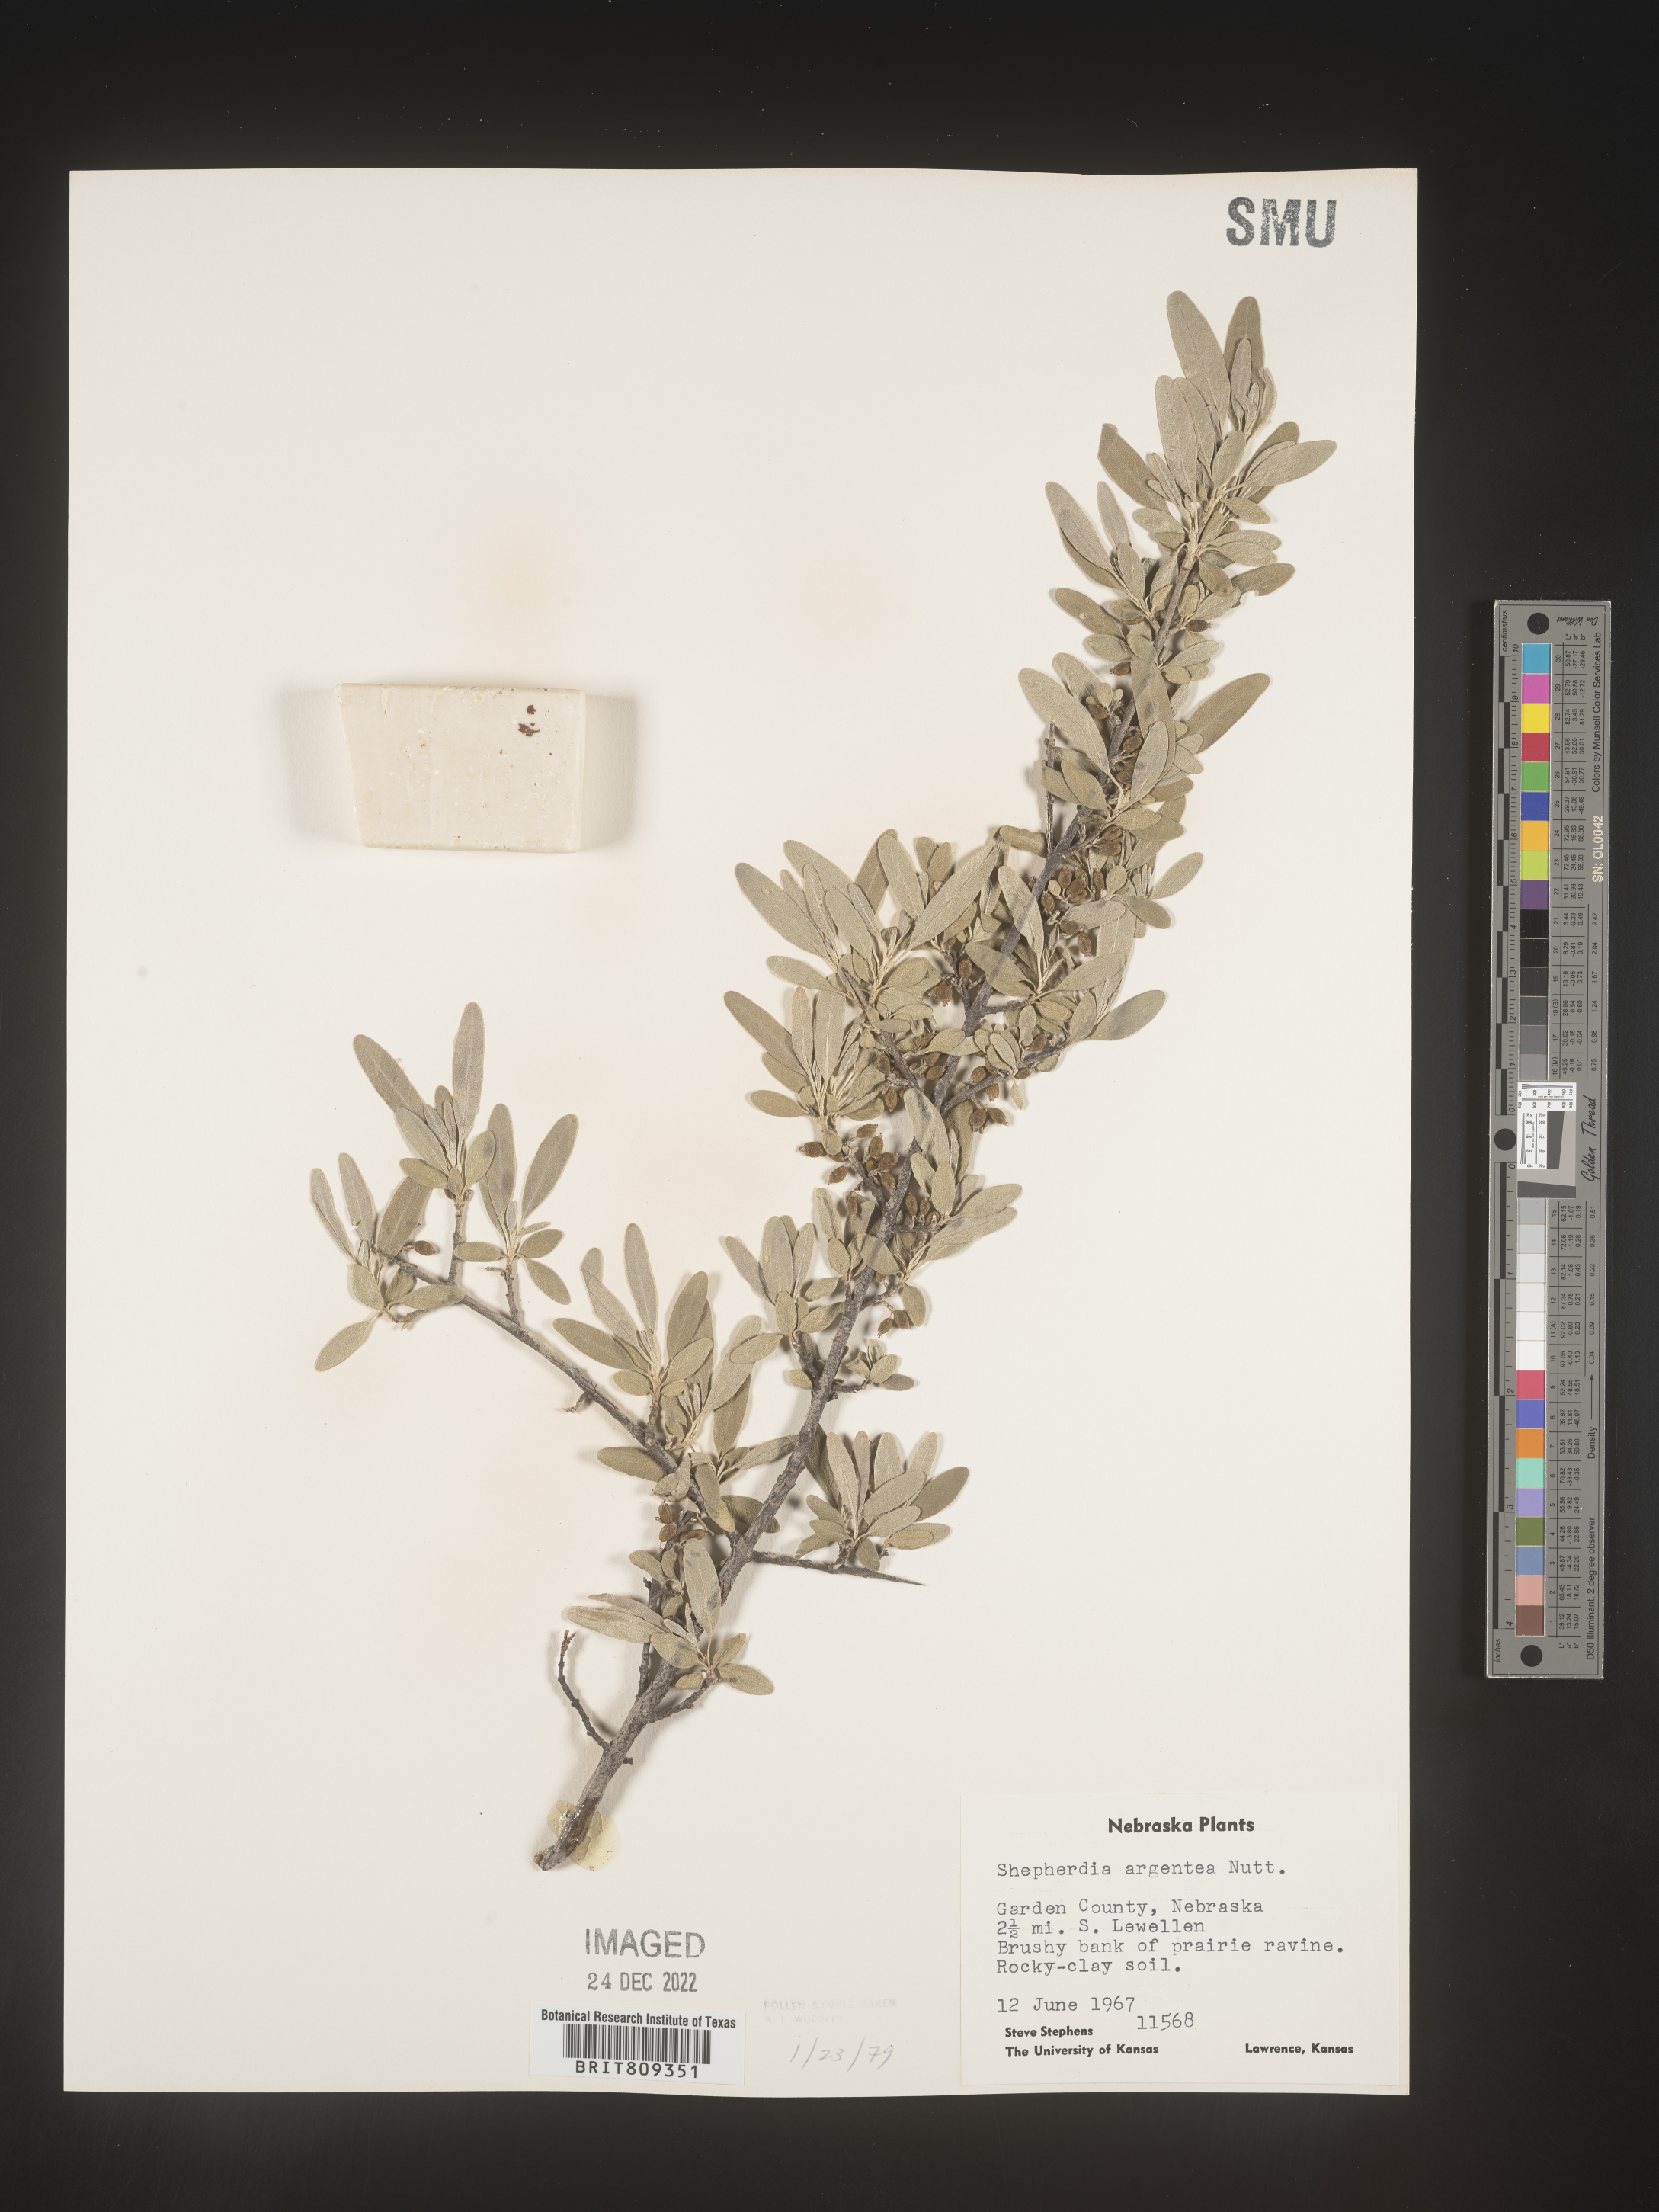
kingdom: Plantae
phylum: Tracheophyta
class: Magnoliopsida
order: Rosales
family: Elaeagnaceae
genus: Shepherdia
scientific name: Shepherdia argentea
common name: Silver buffaloberry
